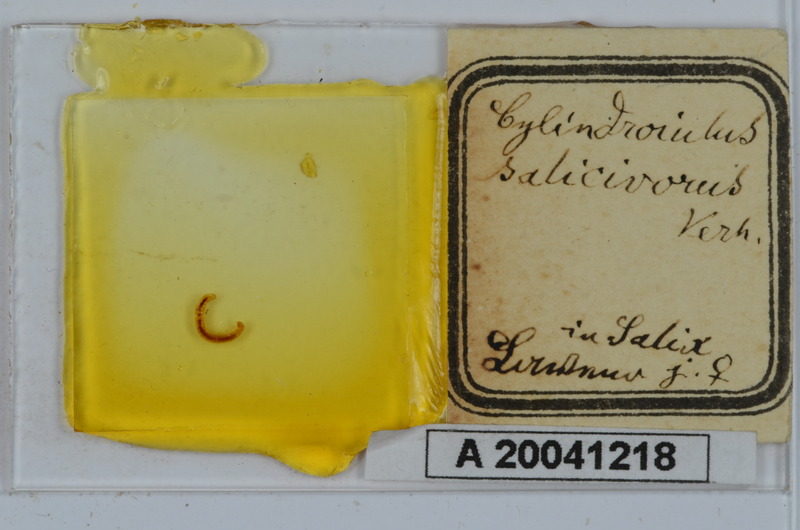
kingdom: Animalia
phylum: Arthropoda
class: Diplopoda
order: Julida
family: Julidae
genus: Cylindroiulus
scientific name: Cylindroiulus salicivorus
